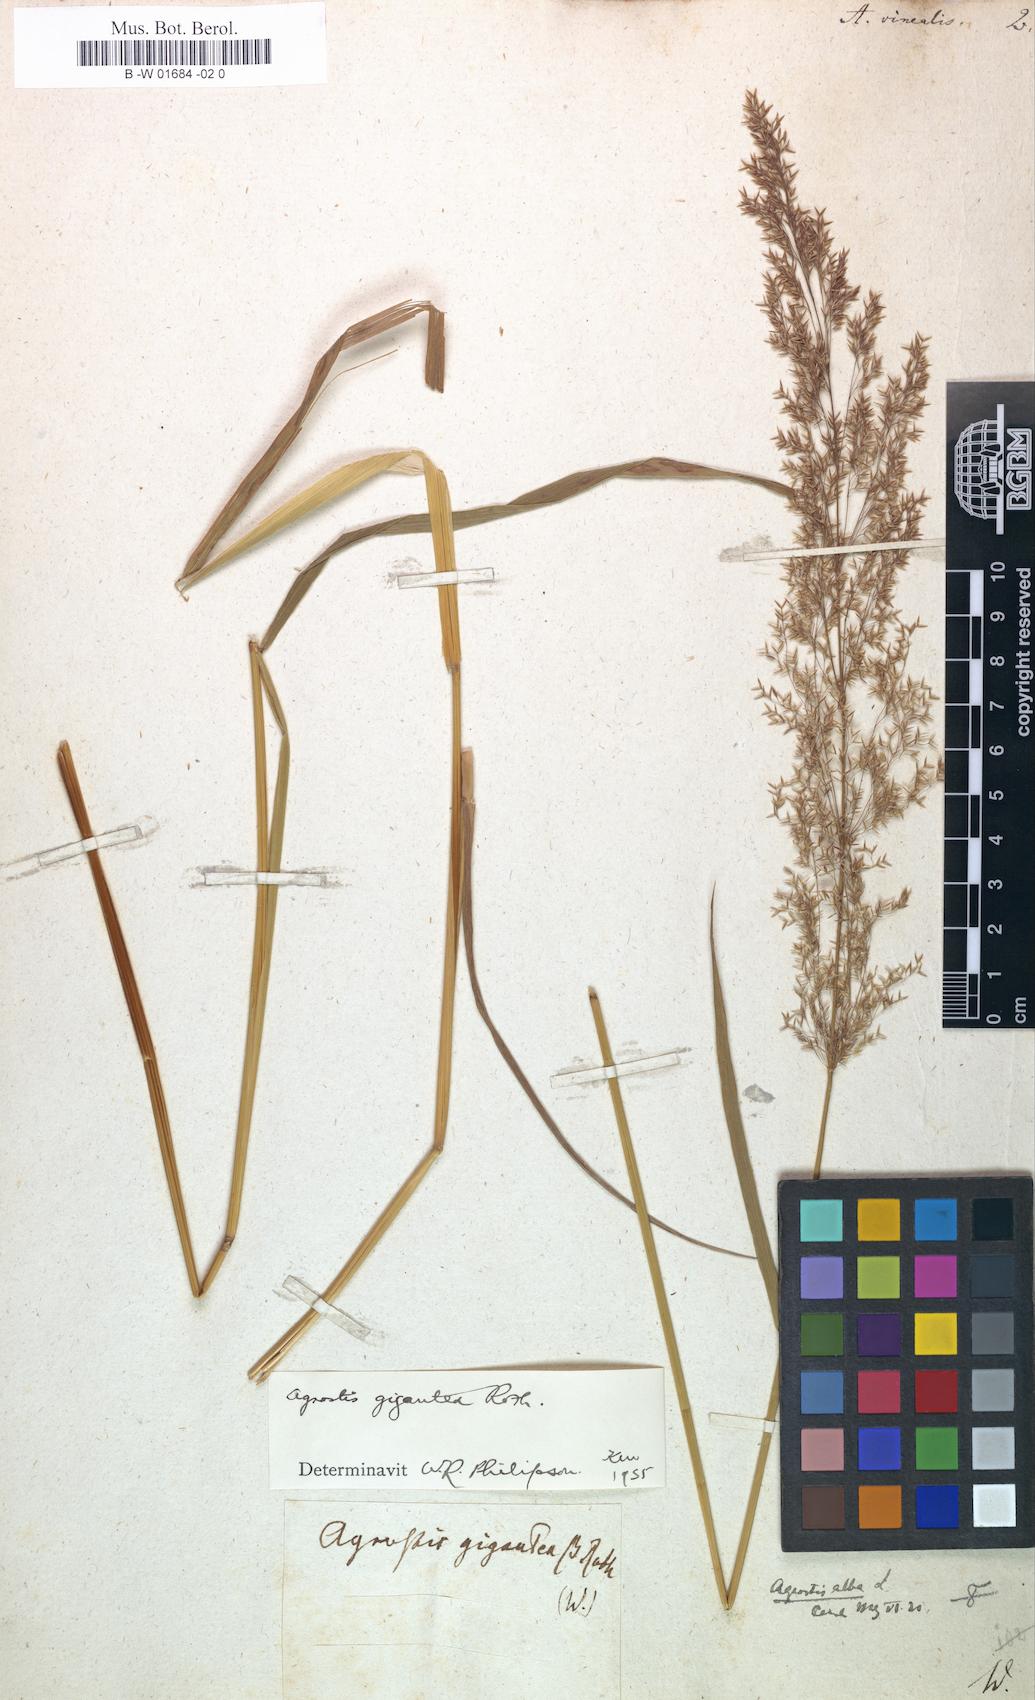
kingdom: Plantae
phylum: Tracheophyta
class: Liliopsida
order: Poales
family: Poaceae
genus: Agrostis
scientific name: Agrostis vinealis
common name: Brown bent
